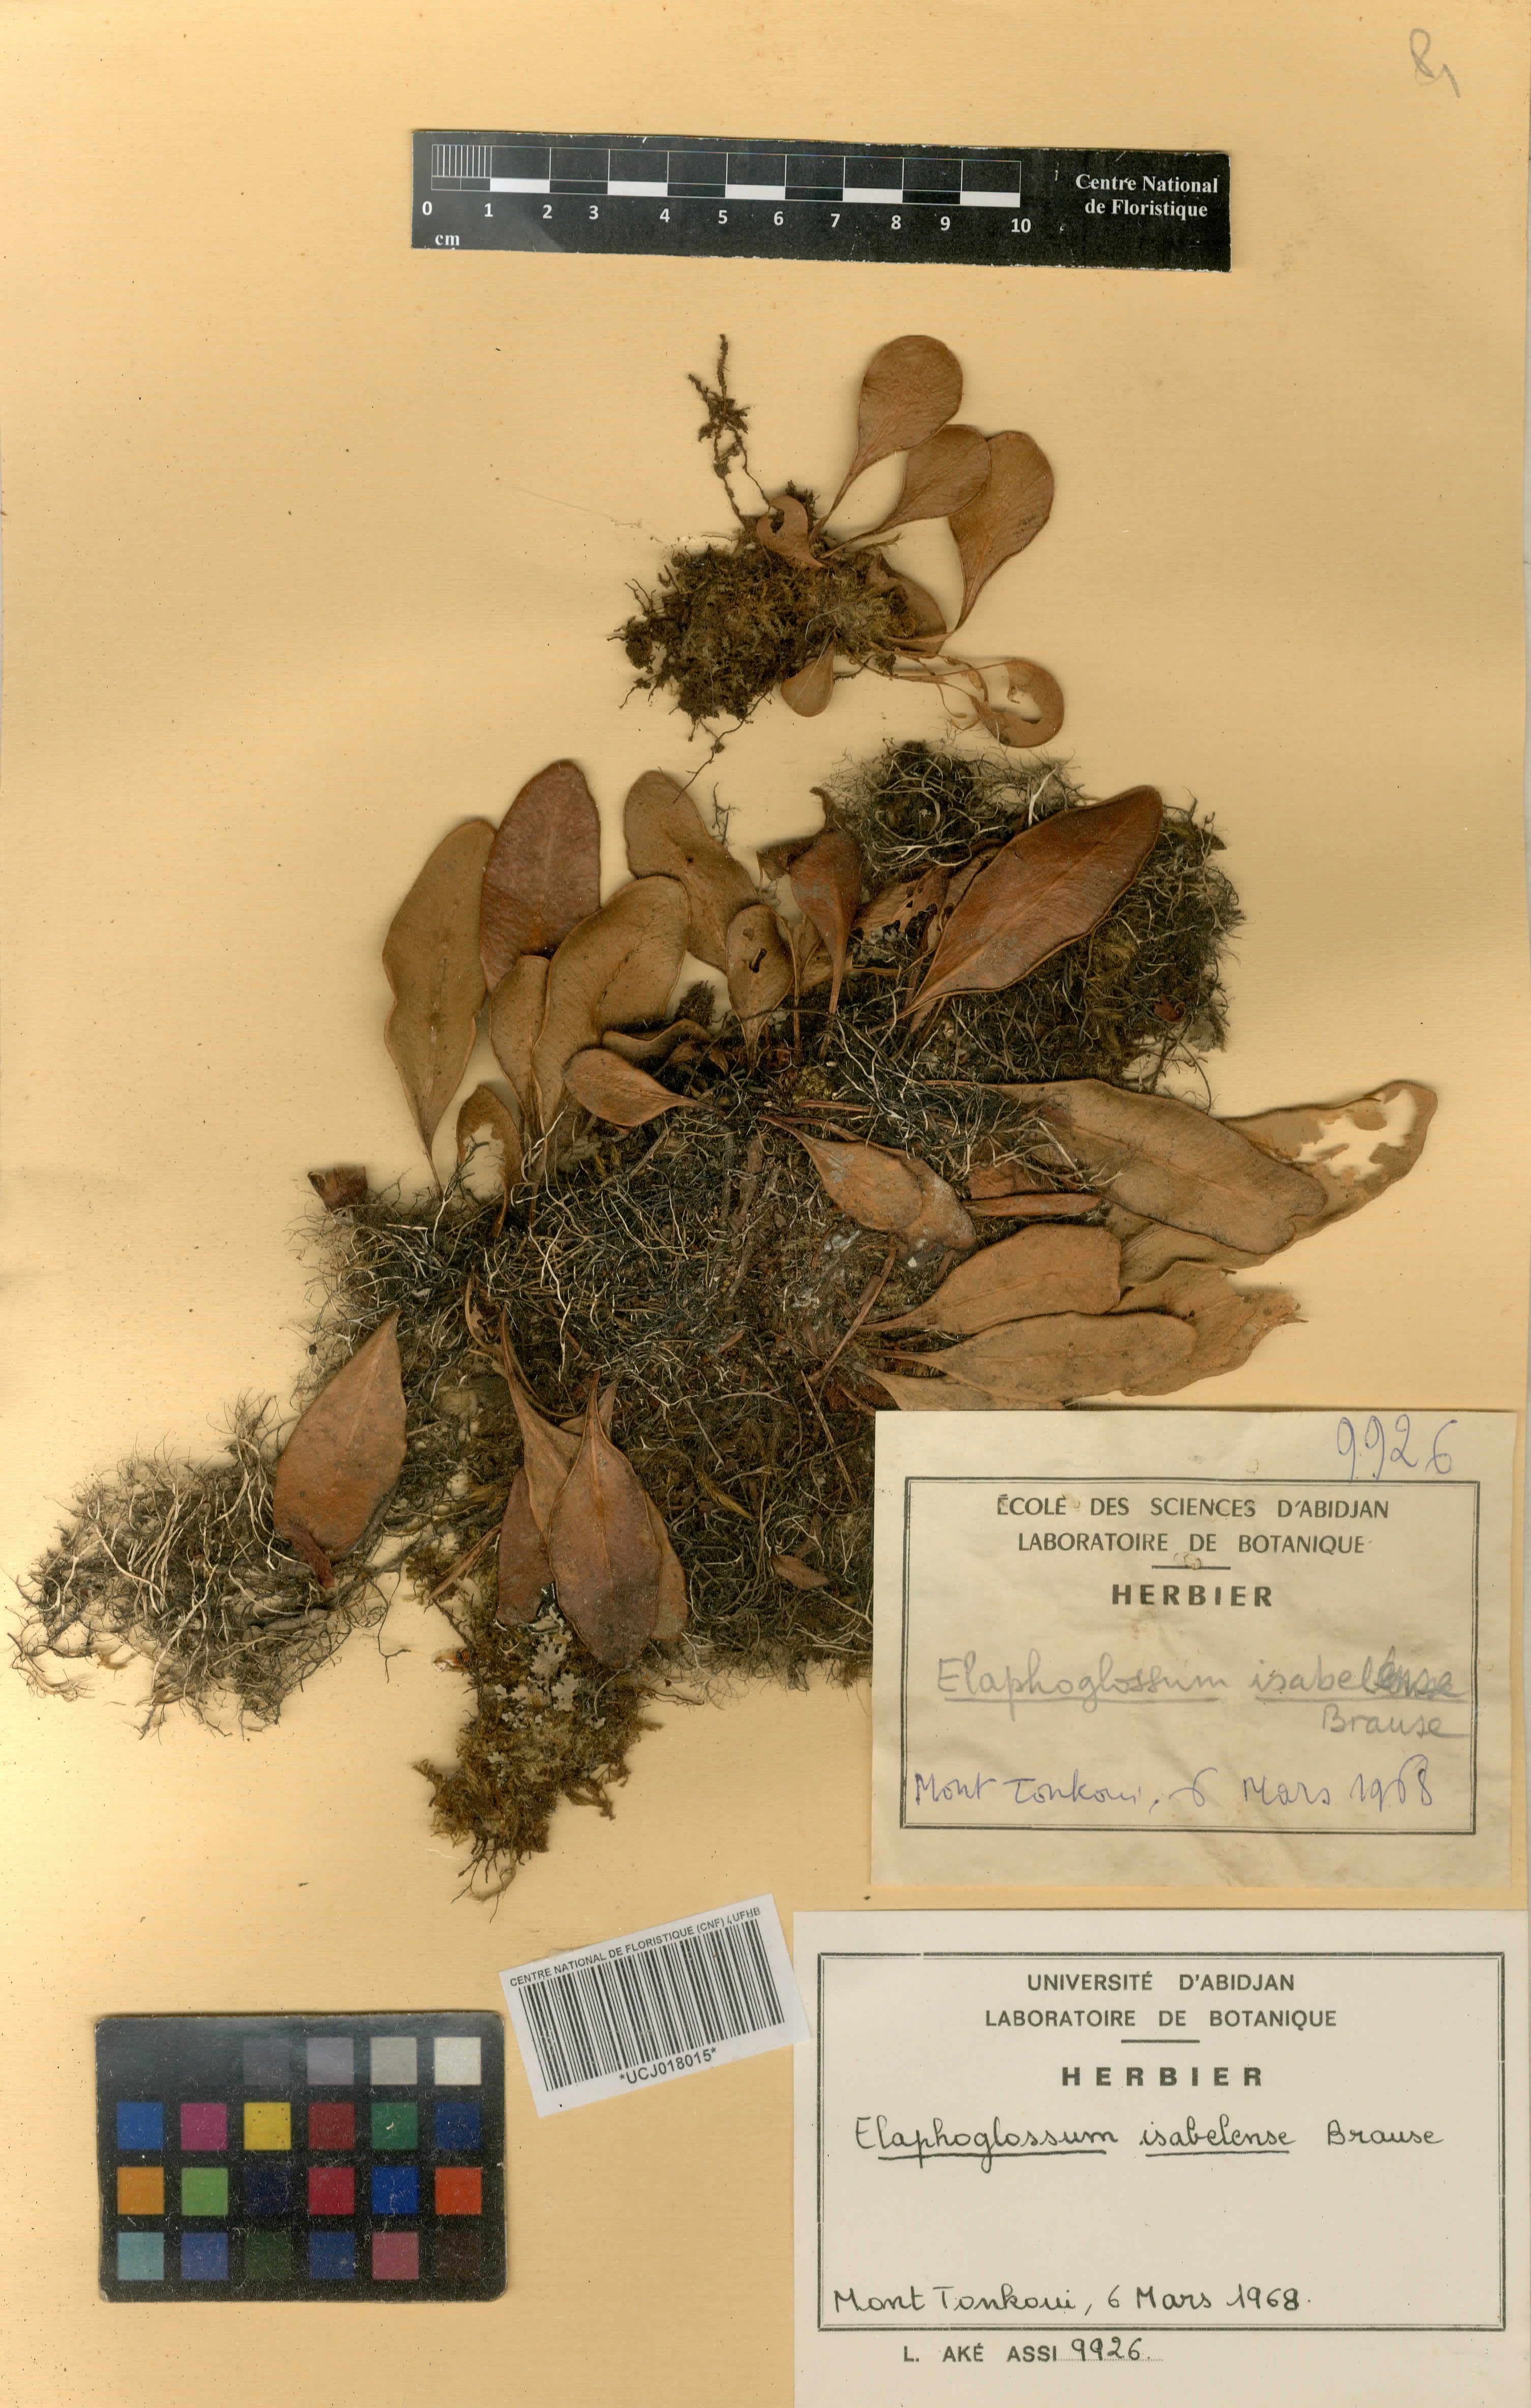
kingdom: Plantae
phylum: Tracheophyta
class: Polypodiopsida
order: Polypodiales
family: Dryopteridaceae
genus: Elaphoglossum
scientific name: Elaphoglossum isabelense
